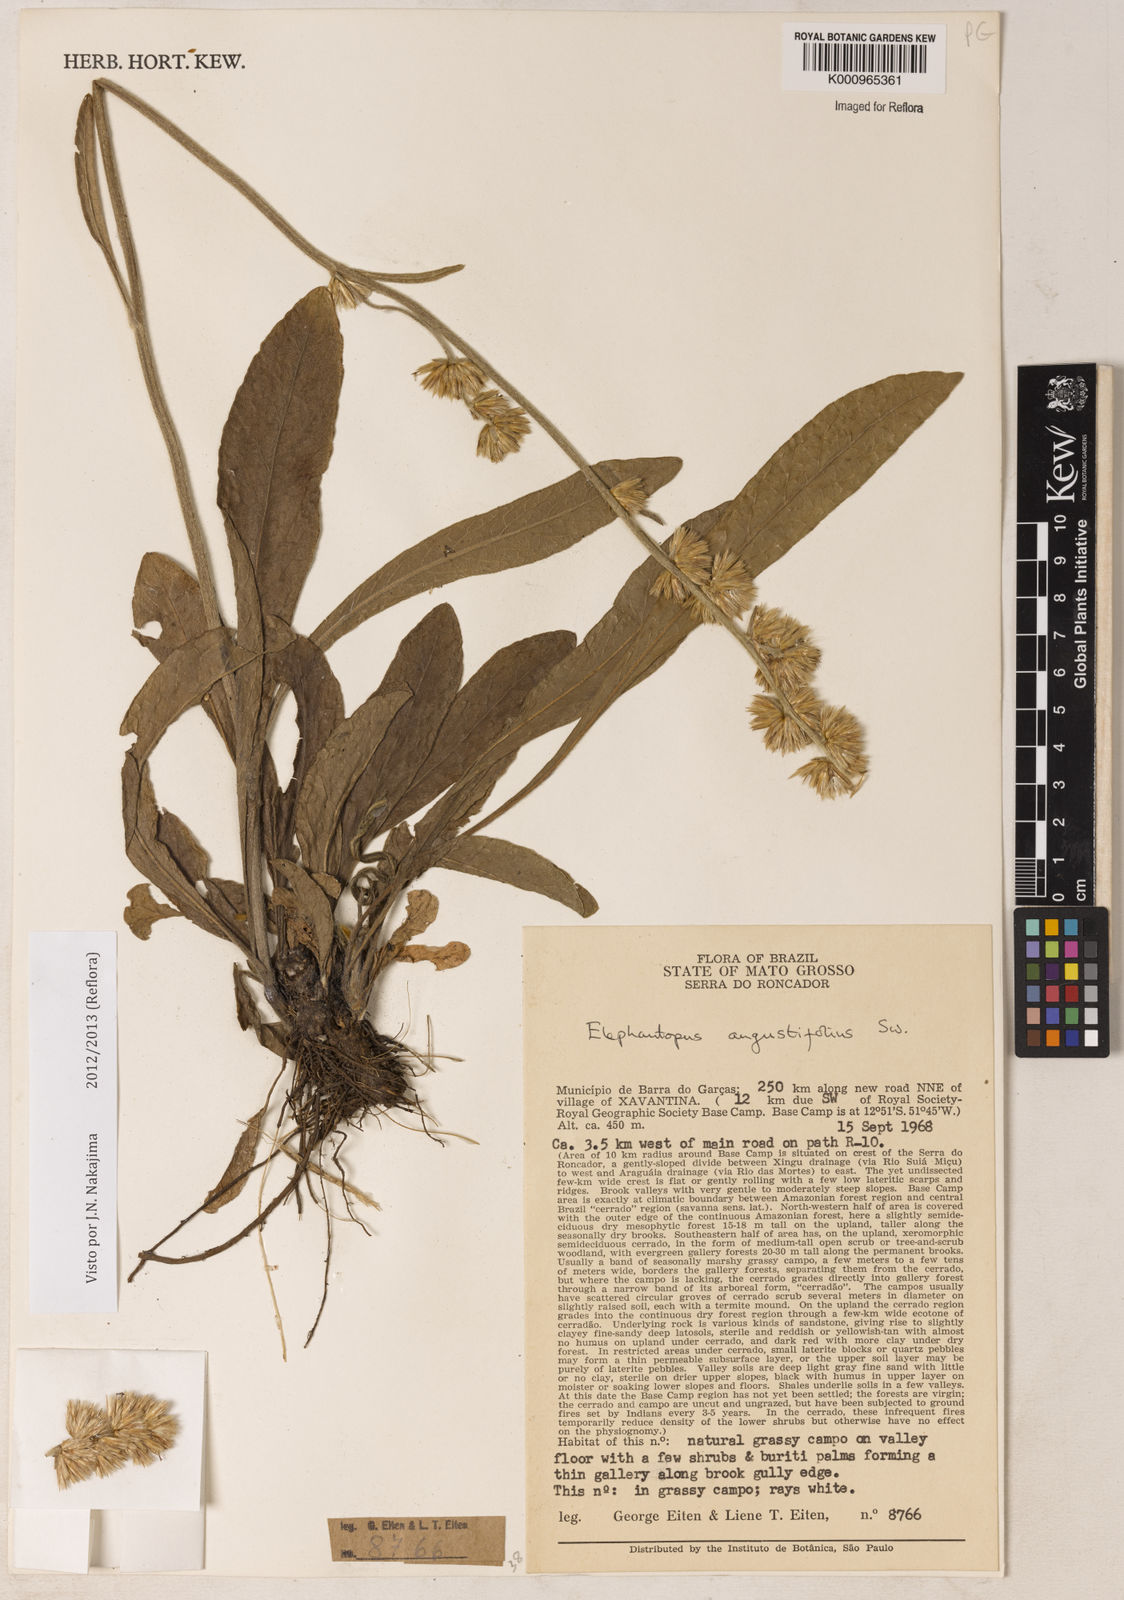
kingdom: Plantae
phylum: Tracheophyta
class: Magnoliopsida
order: Asterales
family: Asteraceae
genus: Orthopappus
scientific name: Orthopappus angustifolius
